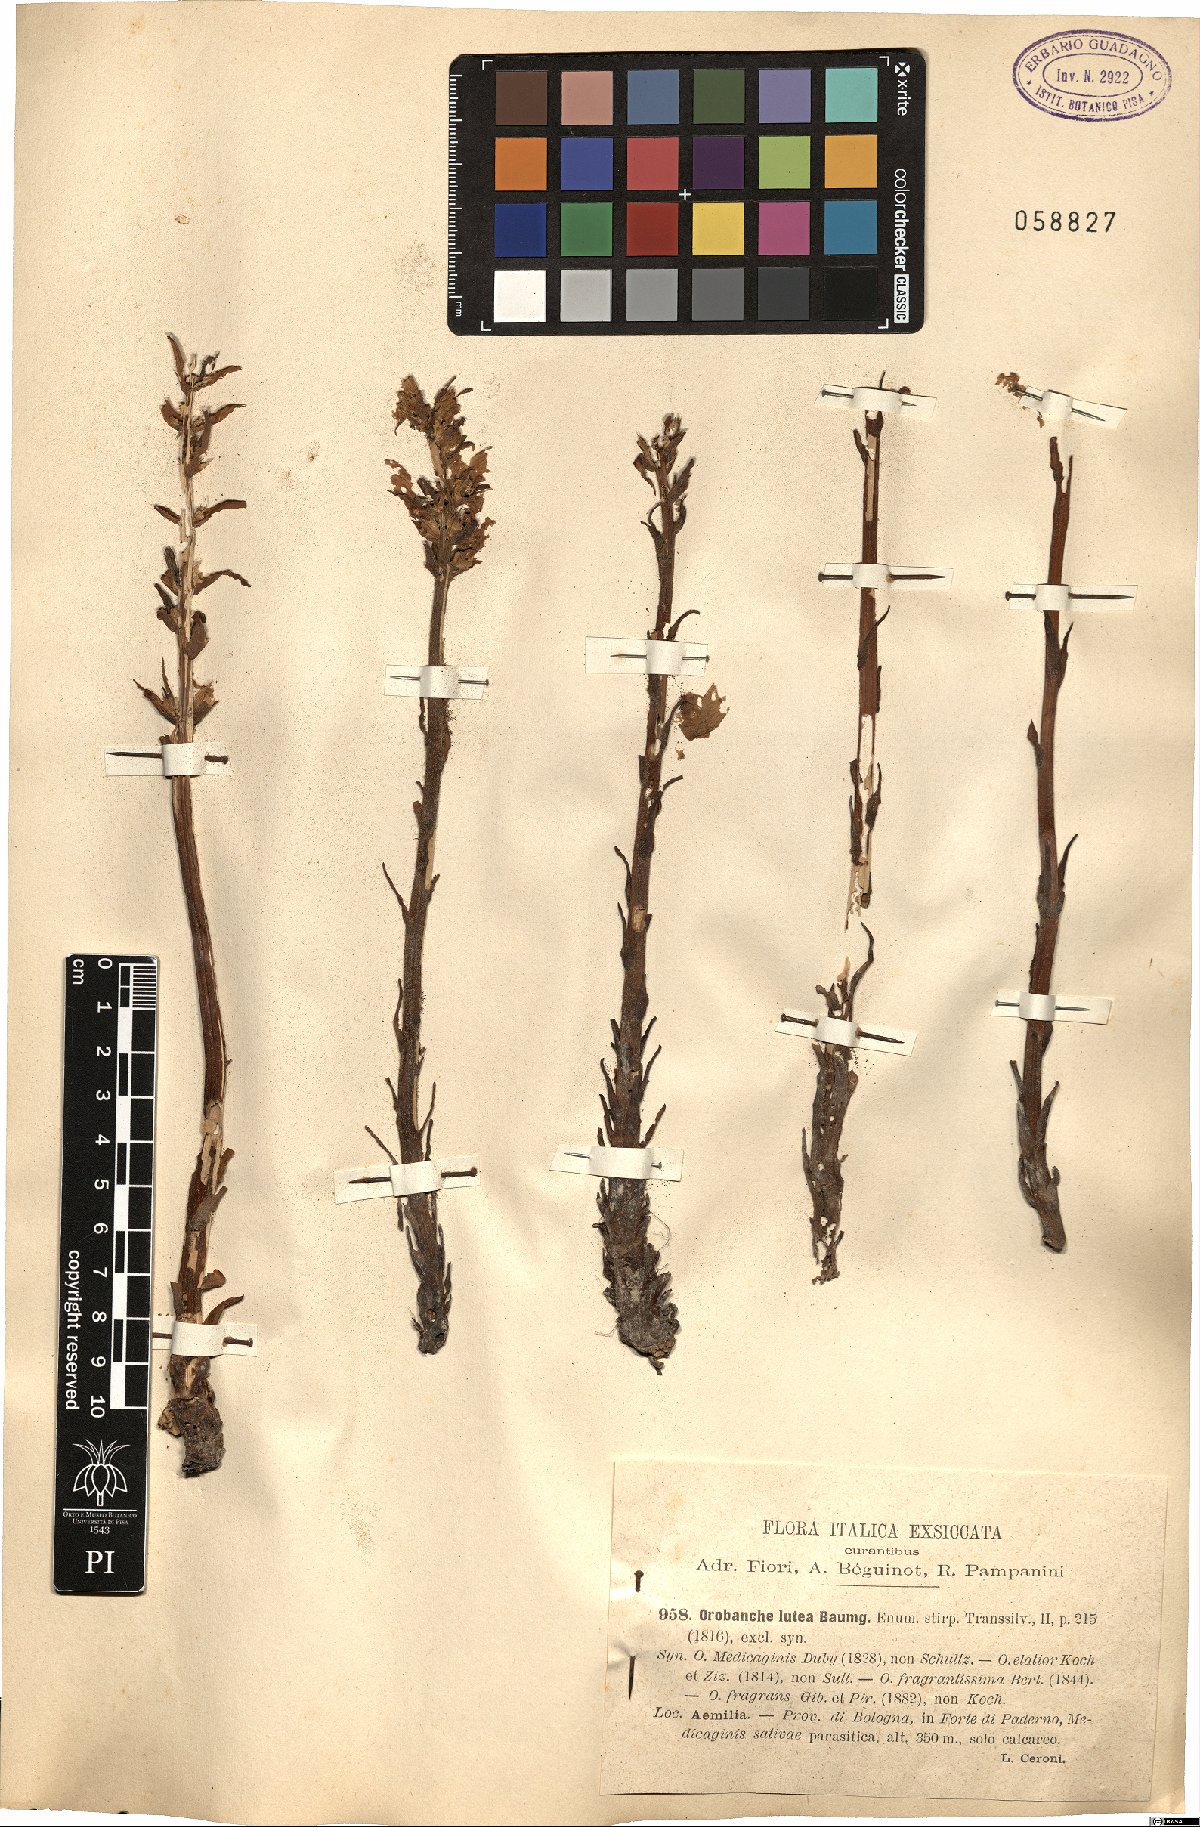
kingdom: Plantae
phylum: Tracheophyta
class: Magnoliopsida
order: Lamiales
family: Orobanchaceae
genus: Orobanche
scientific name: Orobanche lutea
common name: Yellow broomrape
